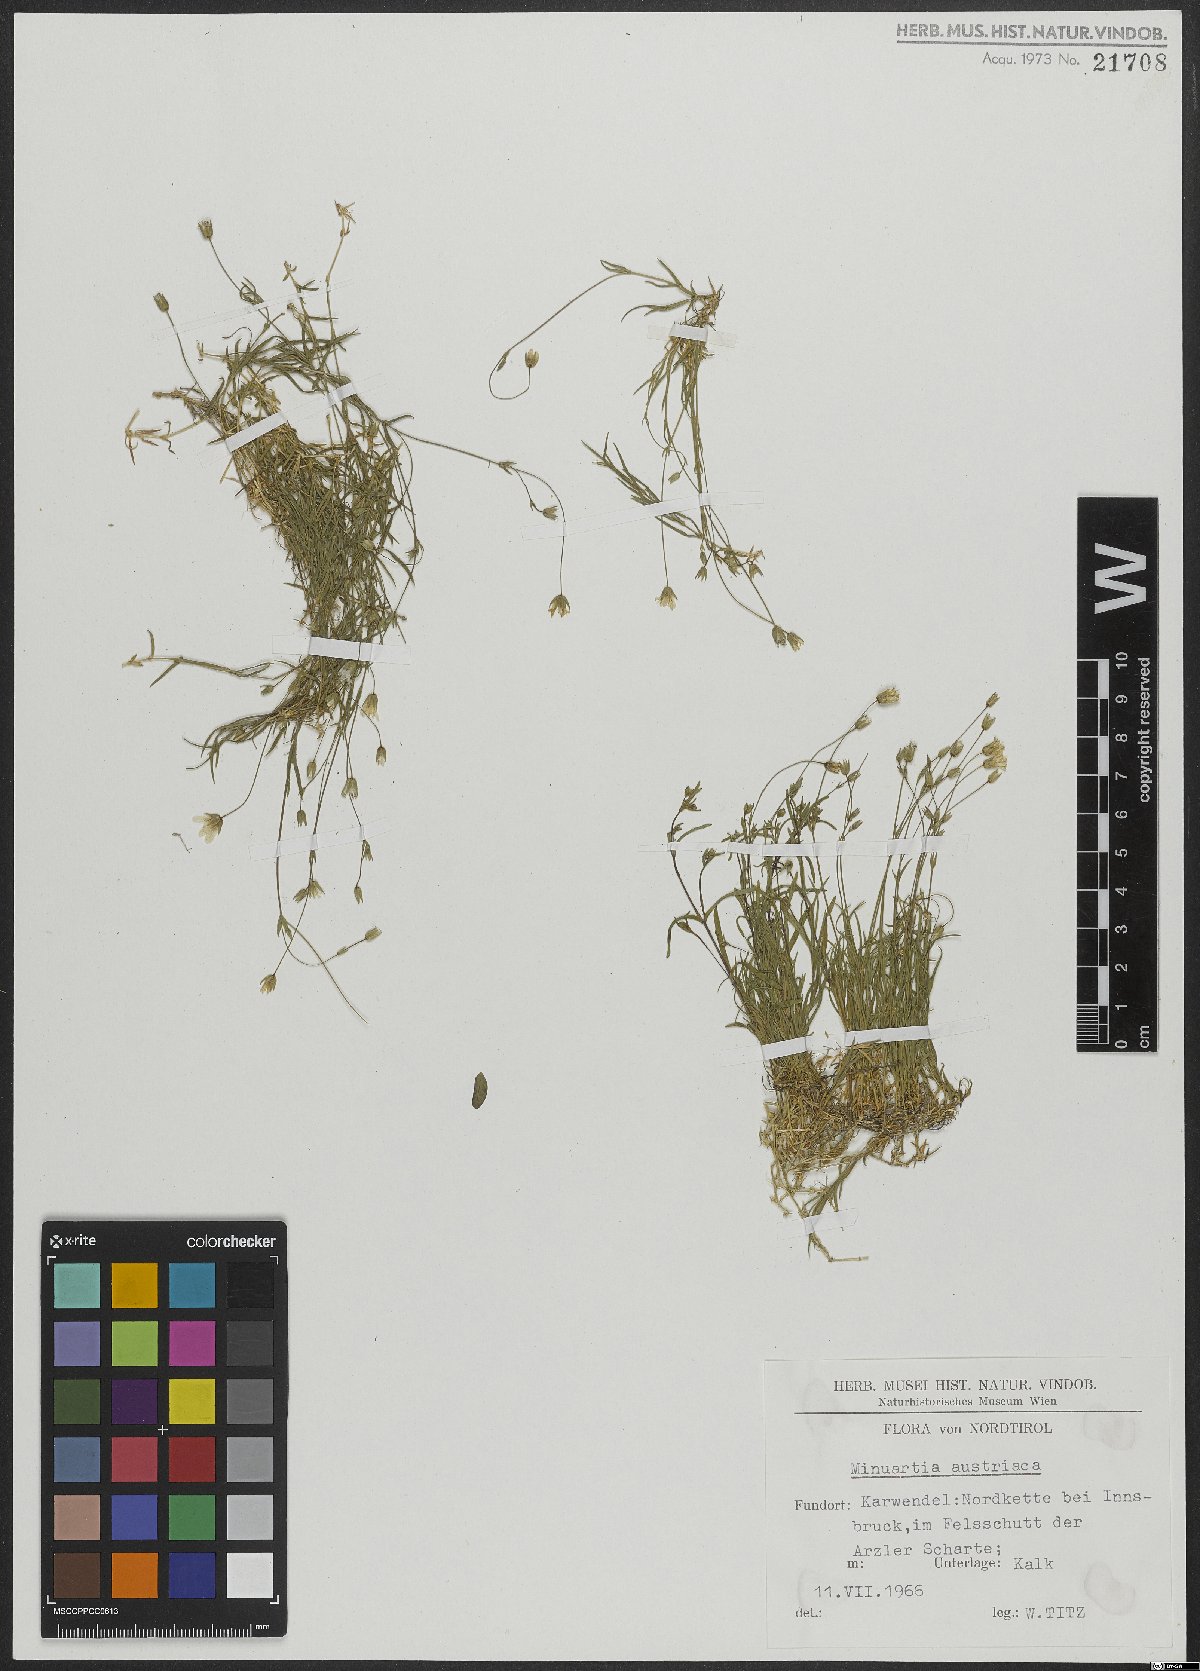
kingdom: Plantae
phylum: Tracheophyta
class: Magnoliopsida
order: Caryophyllales
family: Caryophyllaceae
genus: Sabulina
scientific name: Sabulina austriaca
